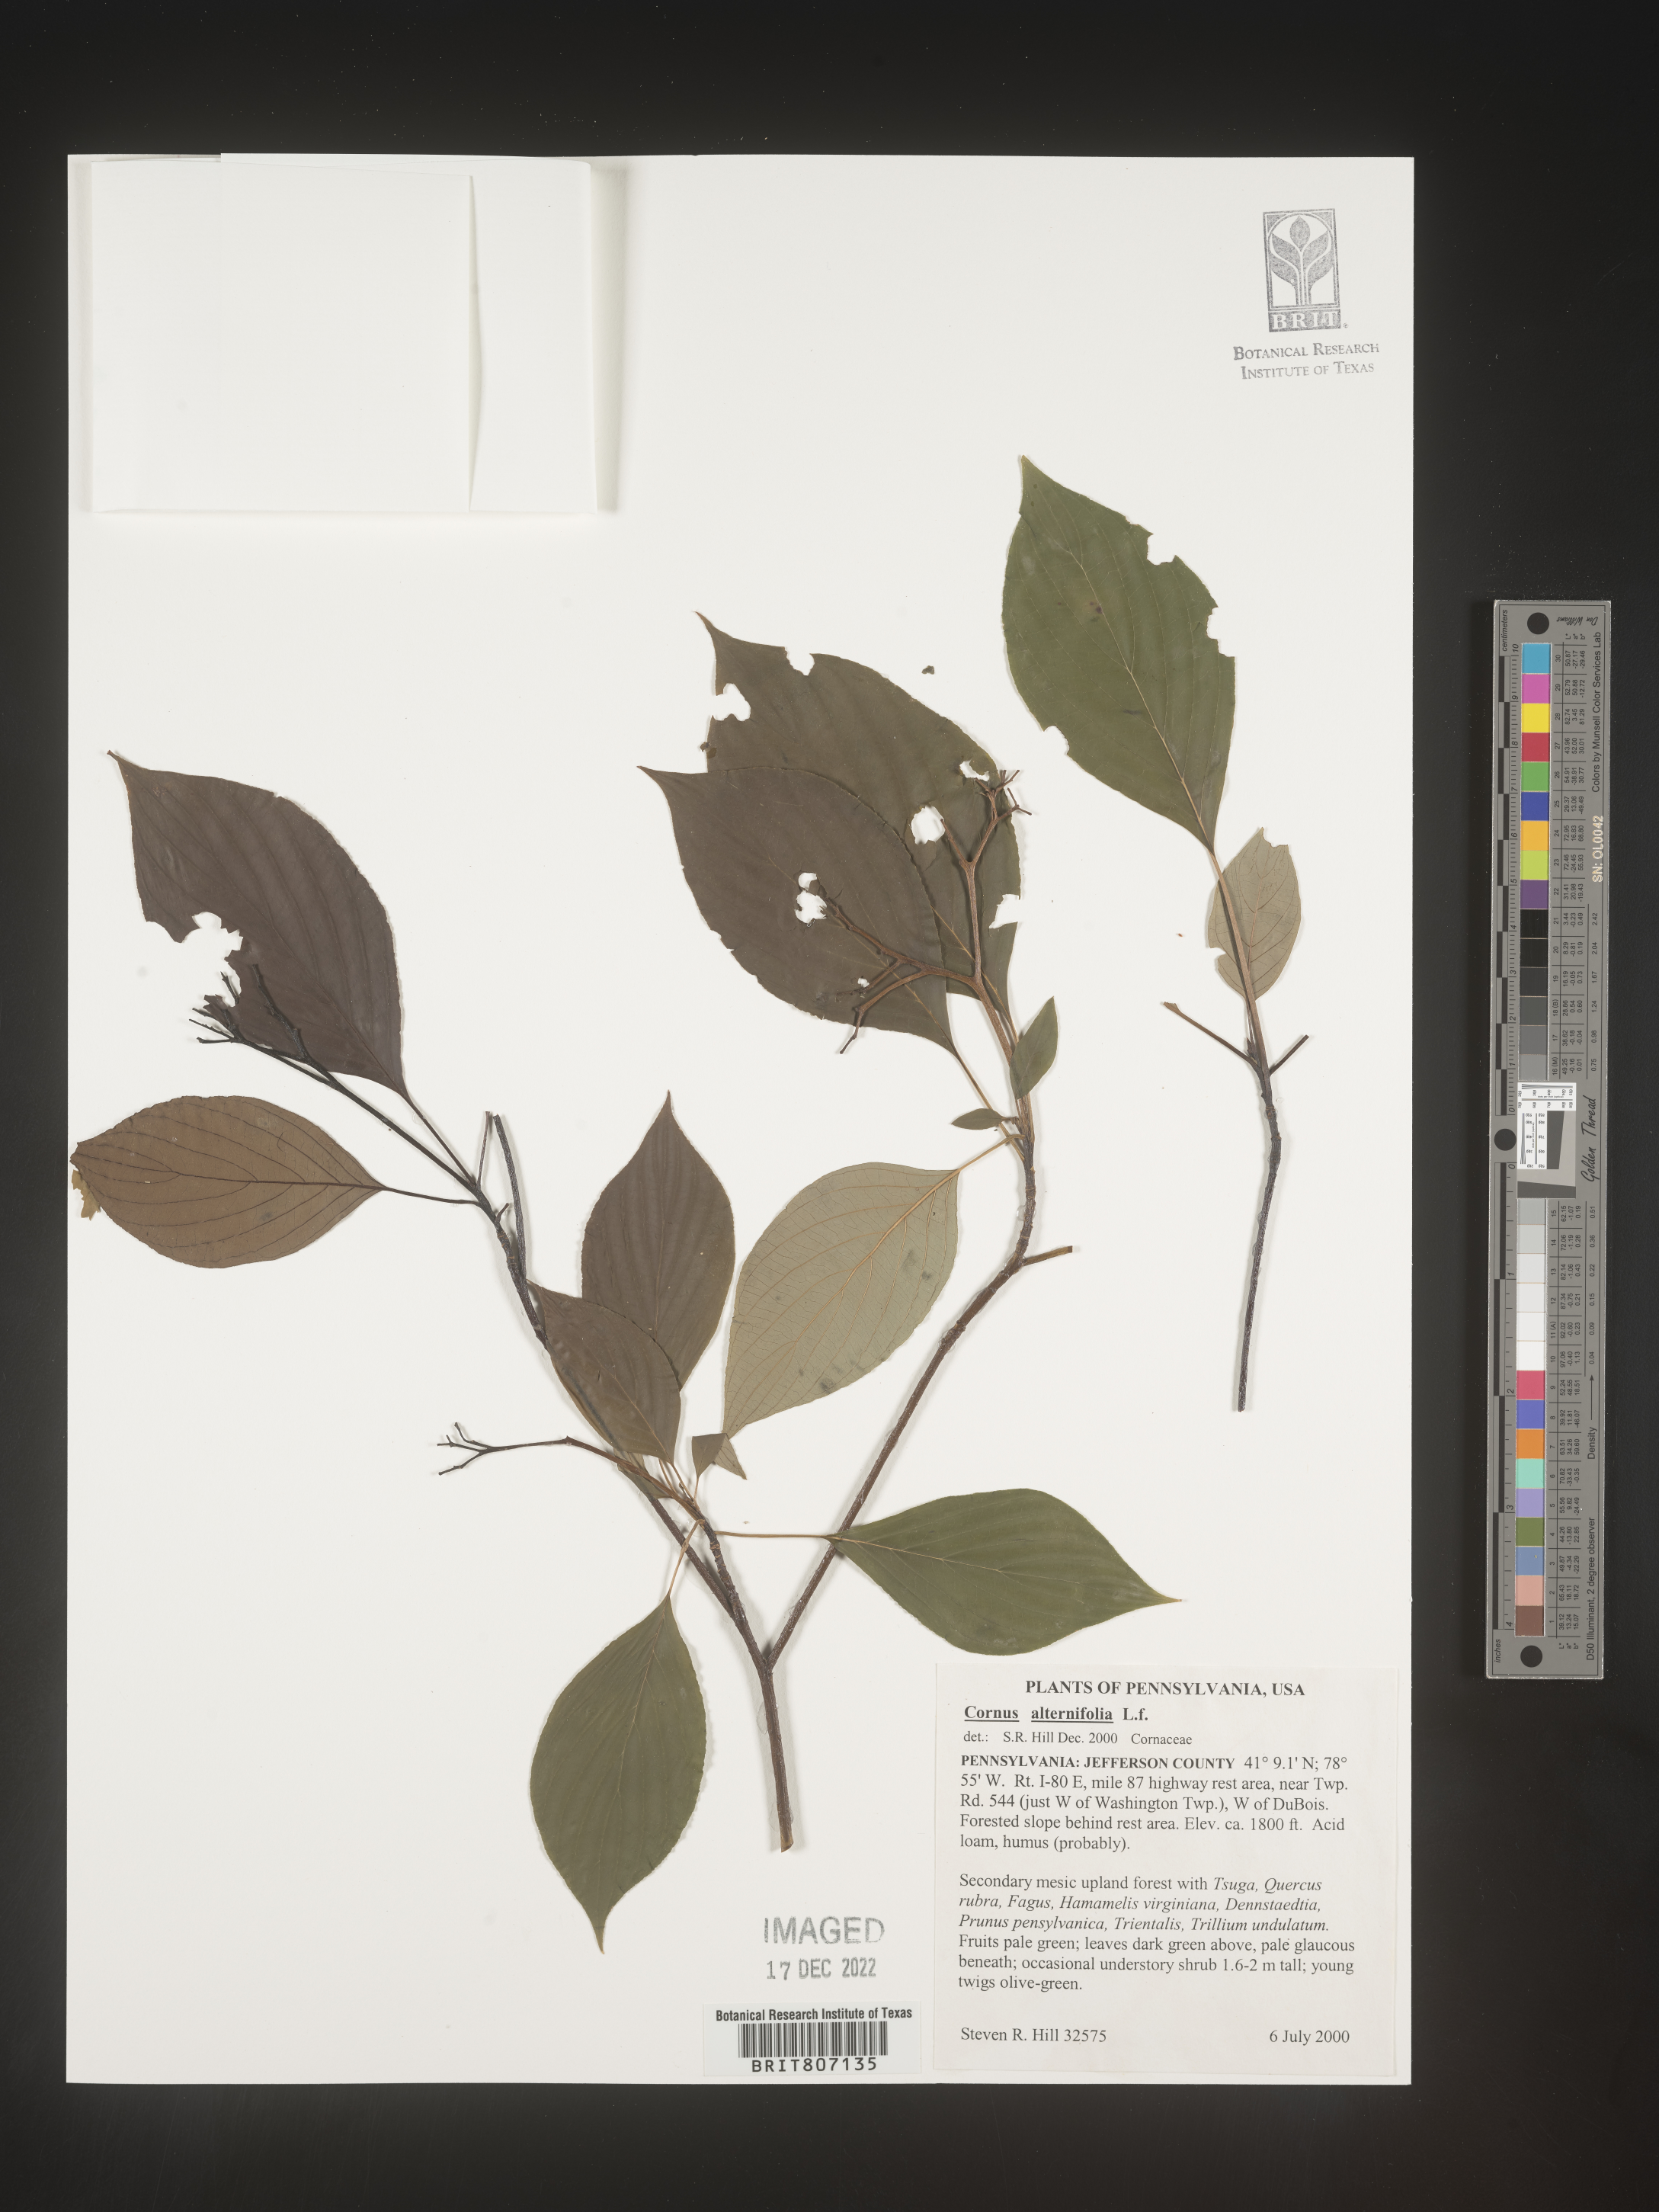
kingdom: Plantae
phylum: Tracheophyta
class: Magnoliopsida
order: Cornales
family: Cornaceae
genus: Cornus
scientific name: Cornus alternifolia
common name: Pagoda dogwood
